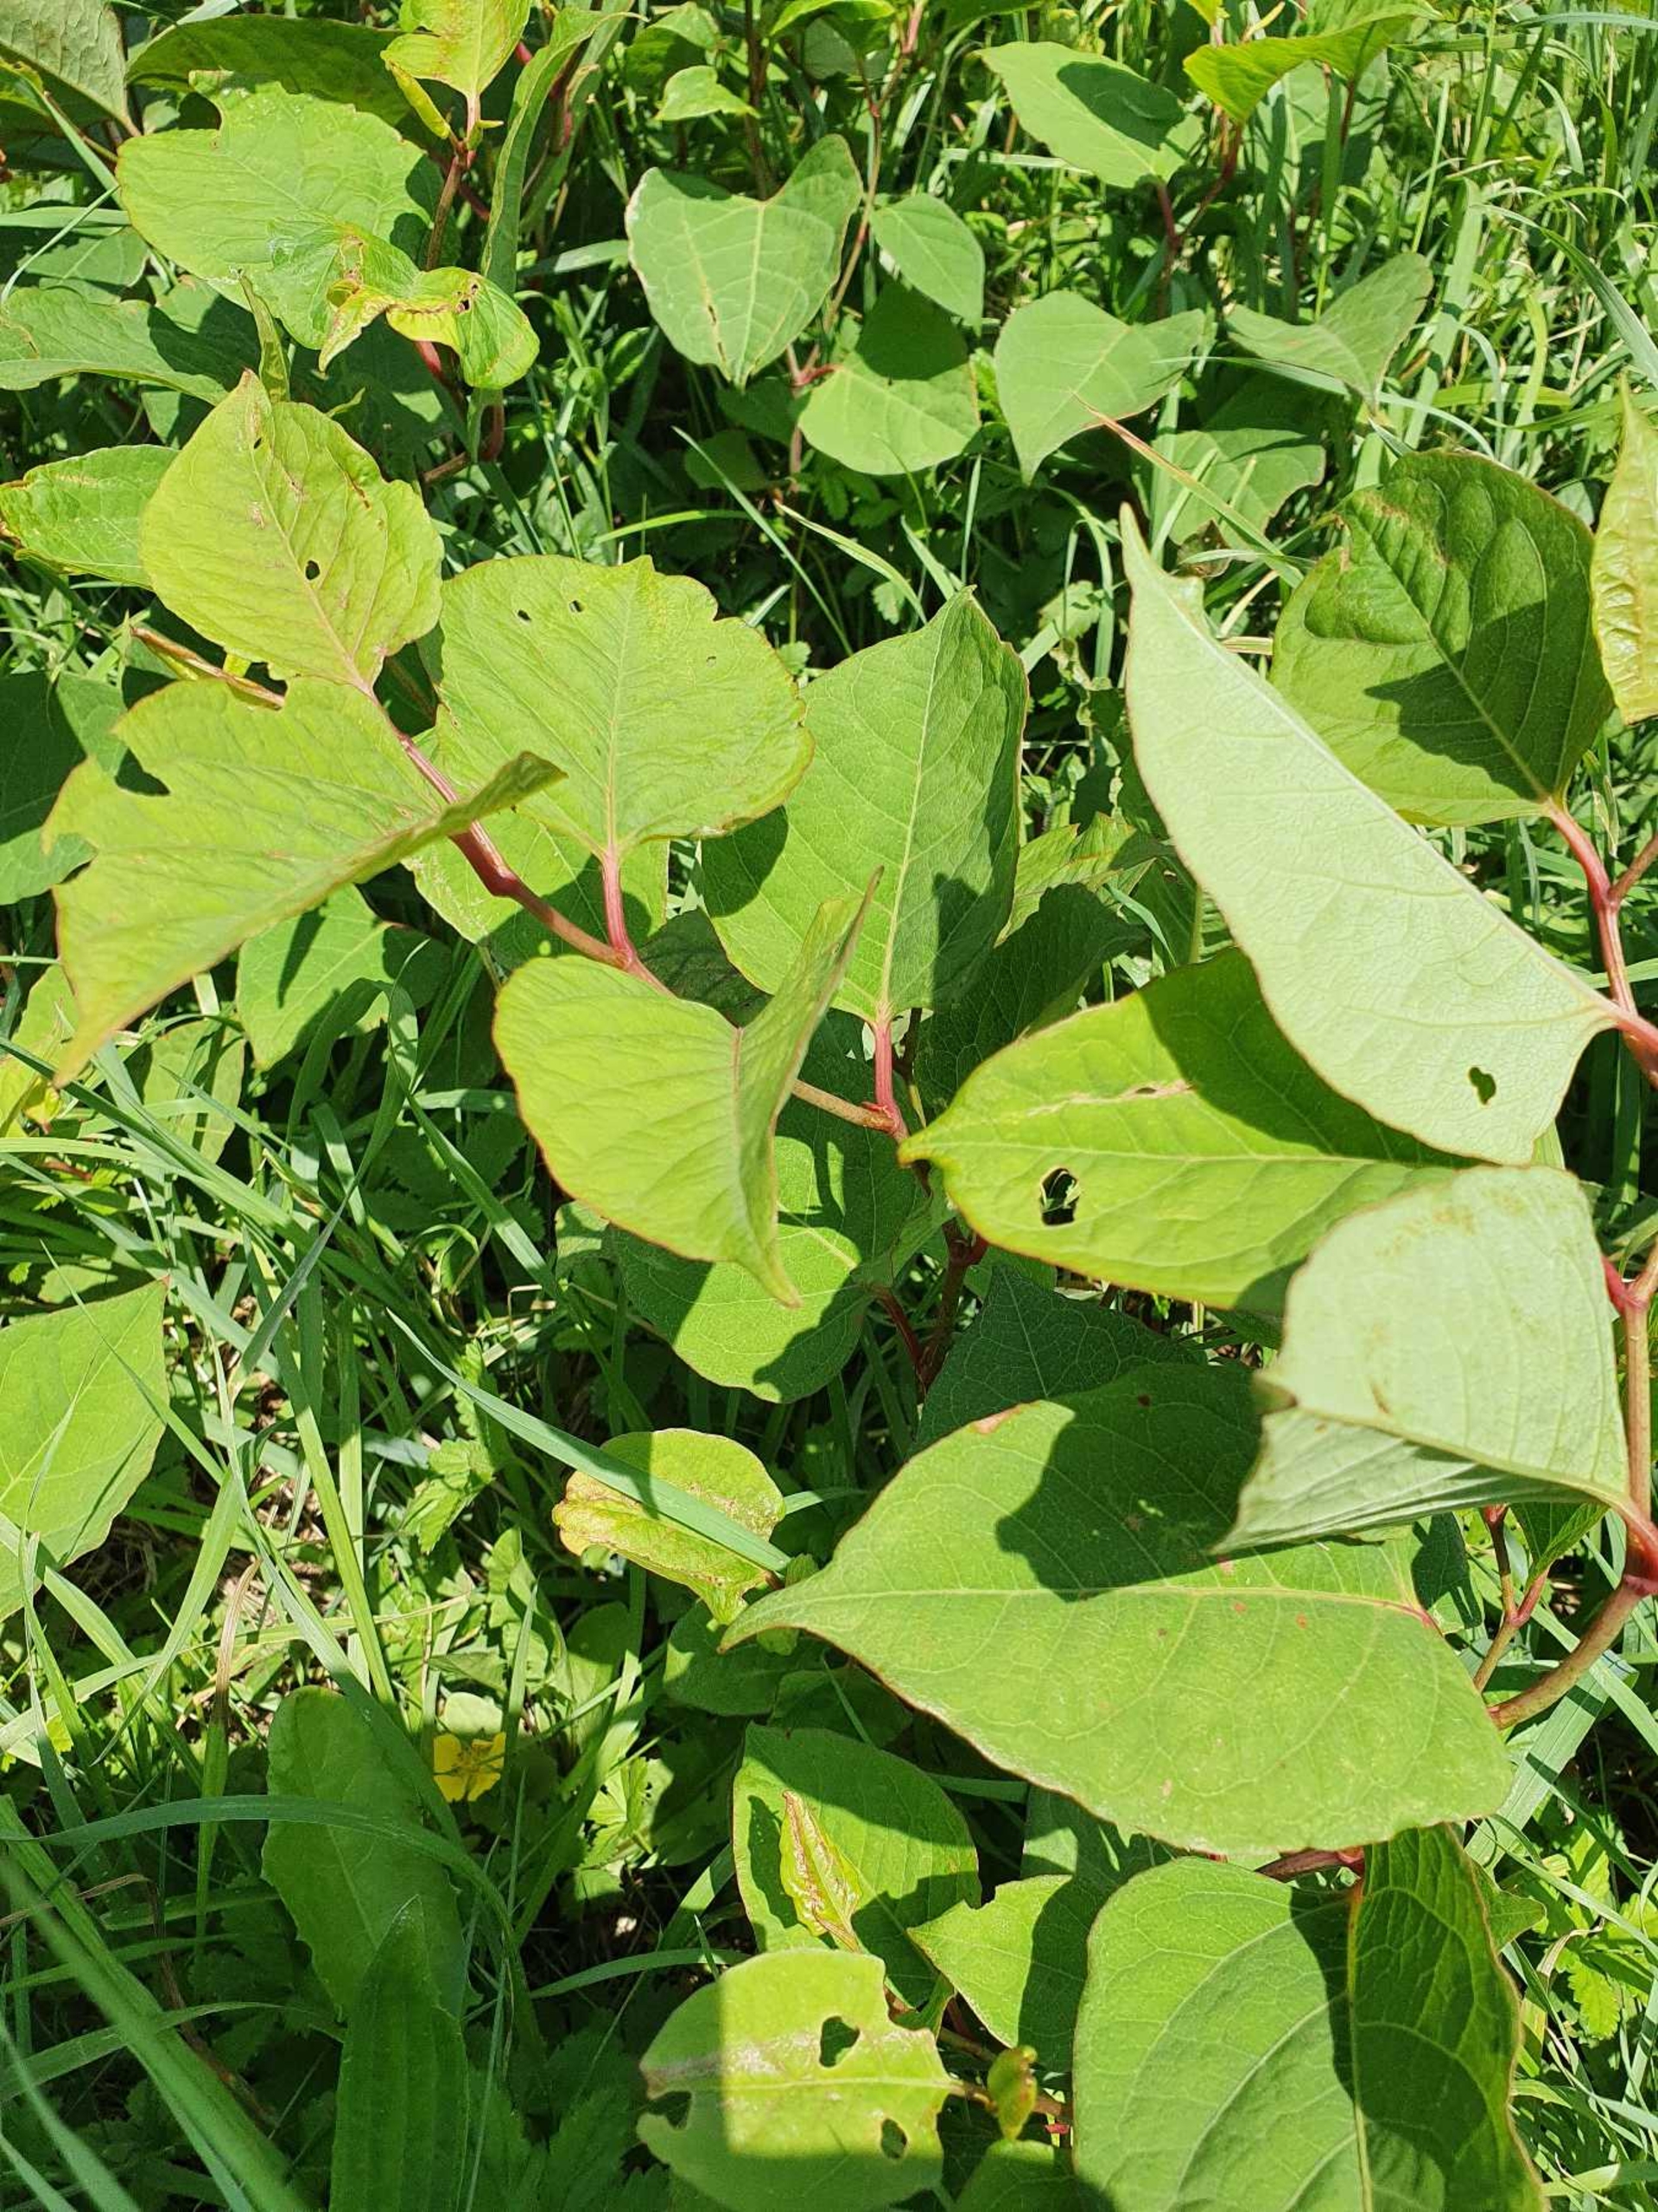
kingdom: Plantae
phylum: Tracheophyta
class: Magnoliopsida
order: Caryophyllales
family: Polygonaceae
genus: Reynoutria
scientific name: Reynoutria japonica
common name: Japan-pileurt
